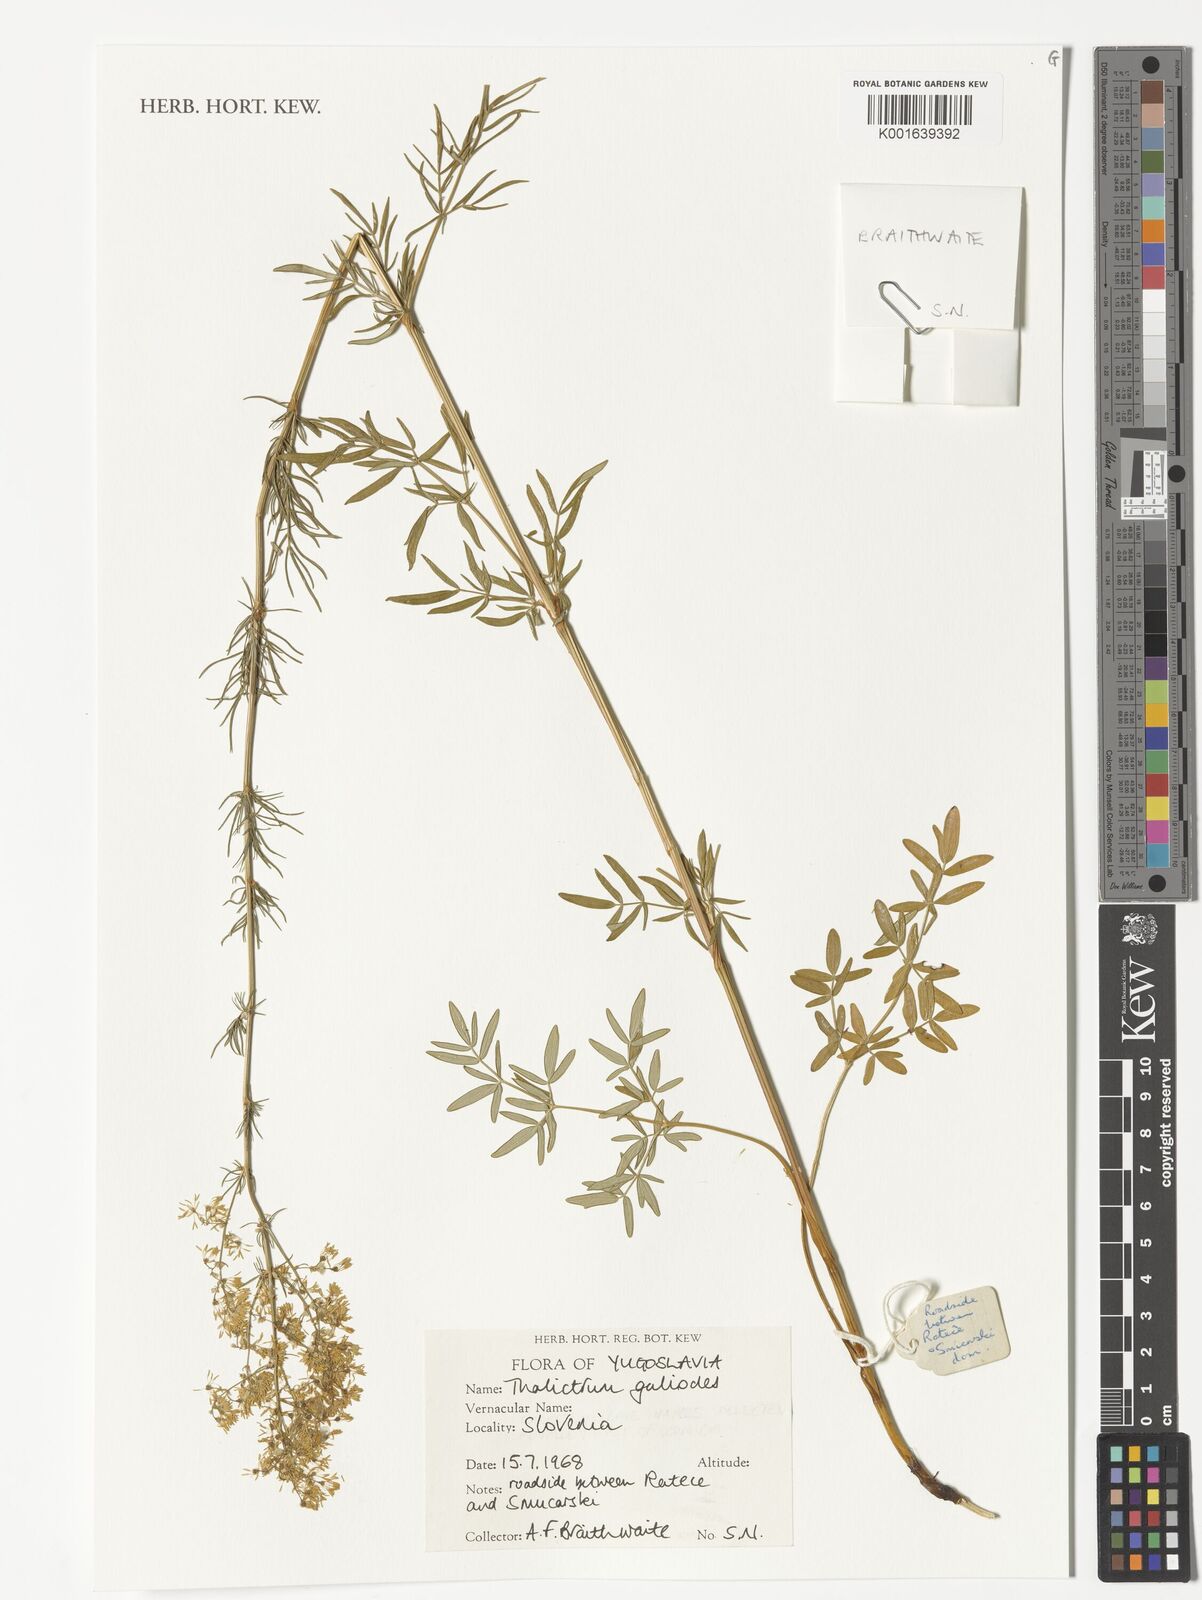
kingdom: Plantae
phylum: Tracheophyta
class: Magnoliopsida
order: Ranunculales
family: Ranunculaceae
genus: Thalictrum
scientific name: Thalictrum galioides
